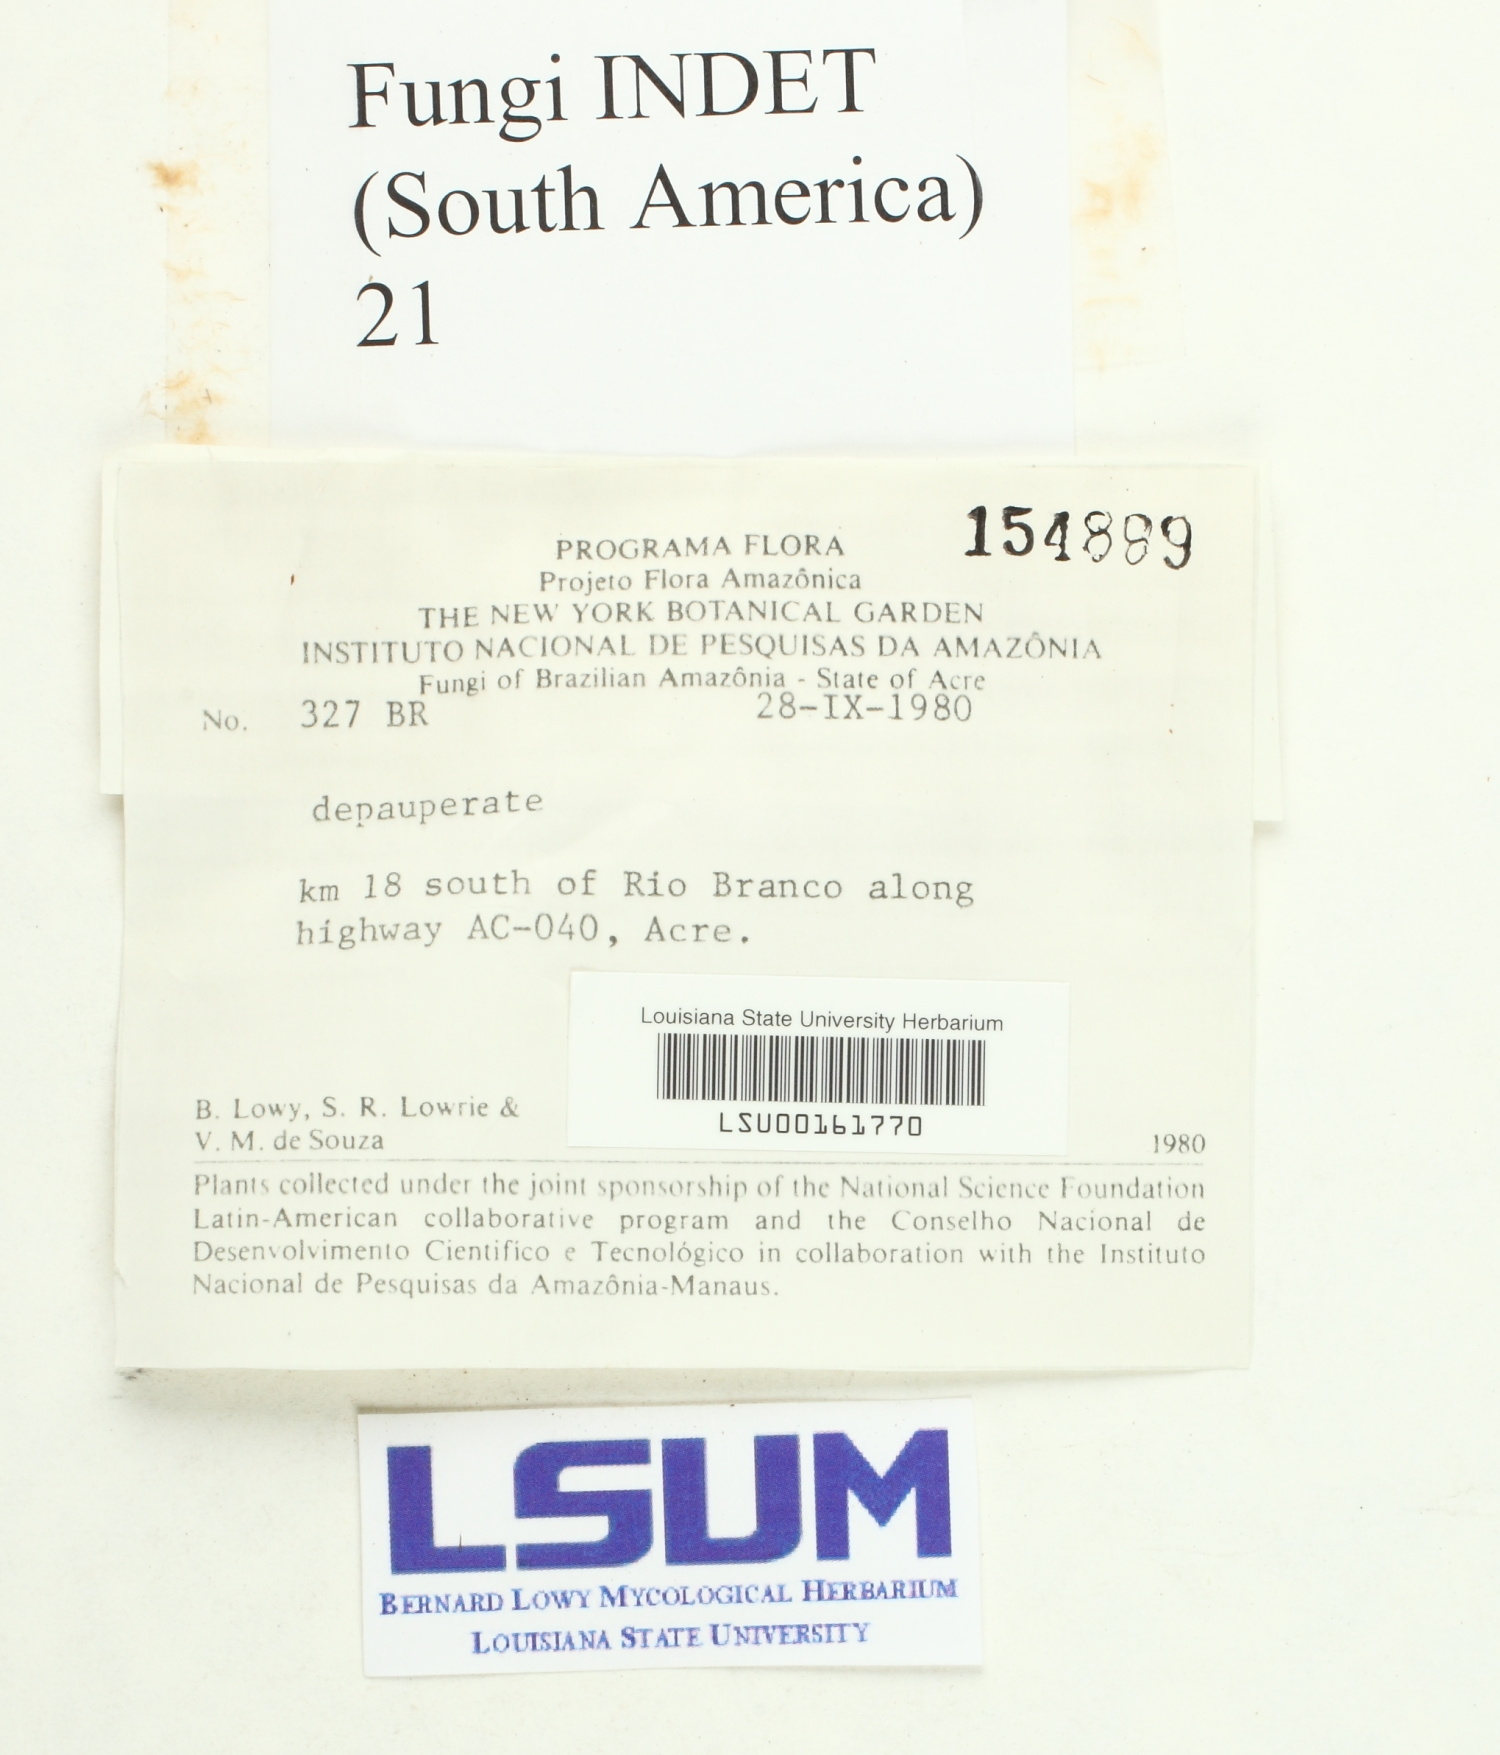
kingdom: Fungi
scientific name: Fungi
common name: Fungi
